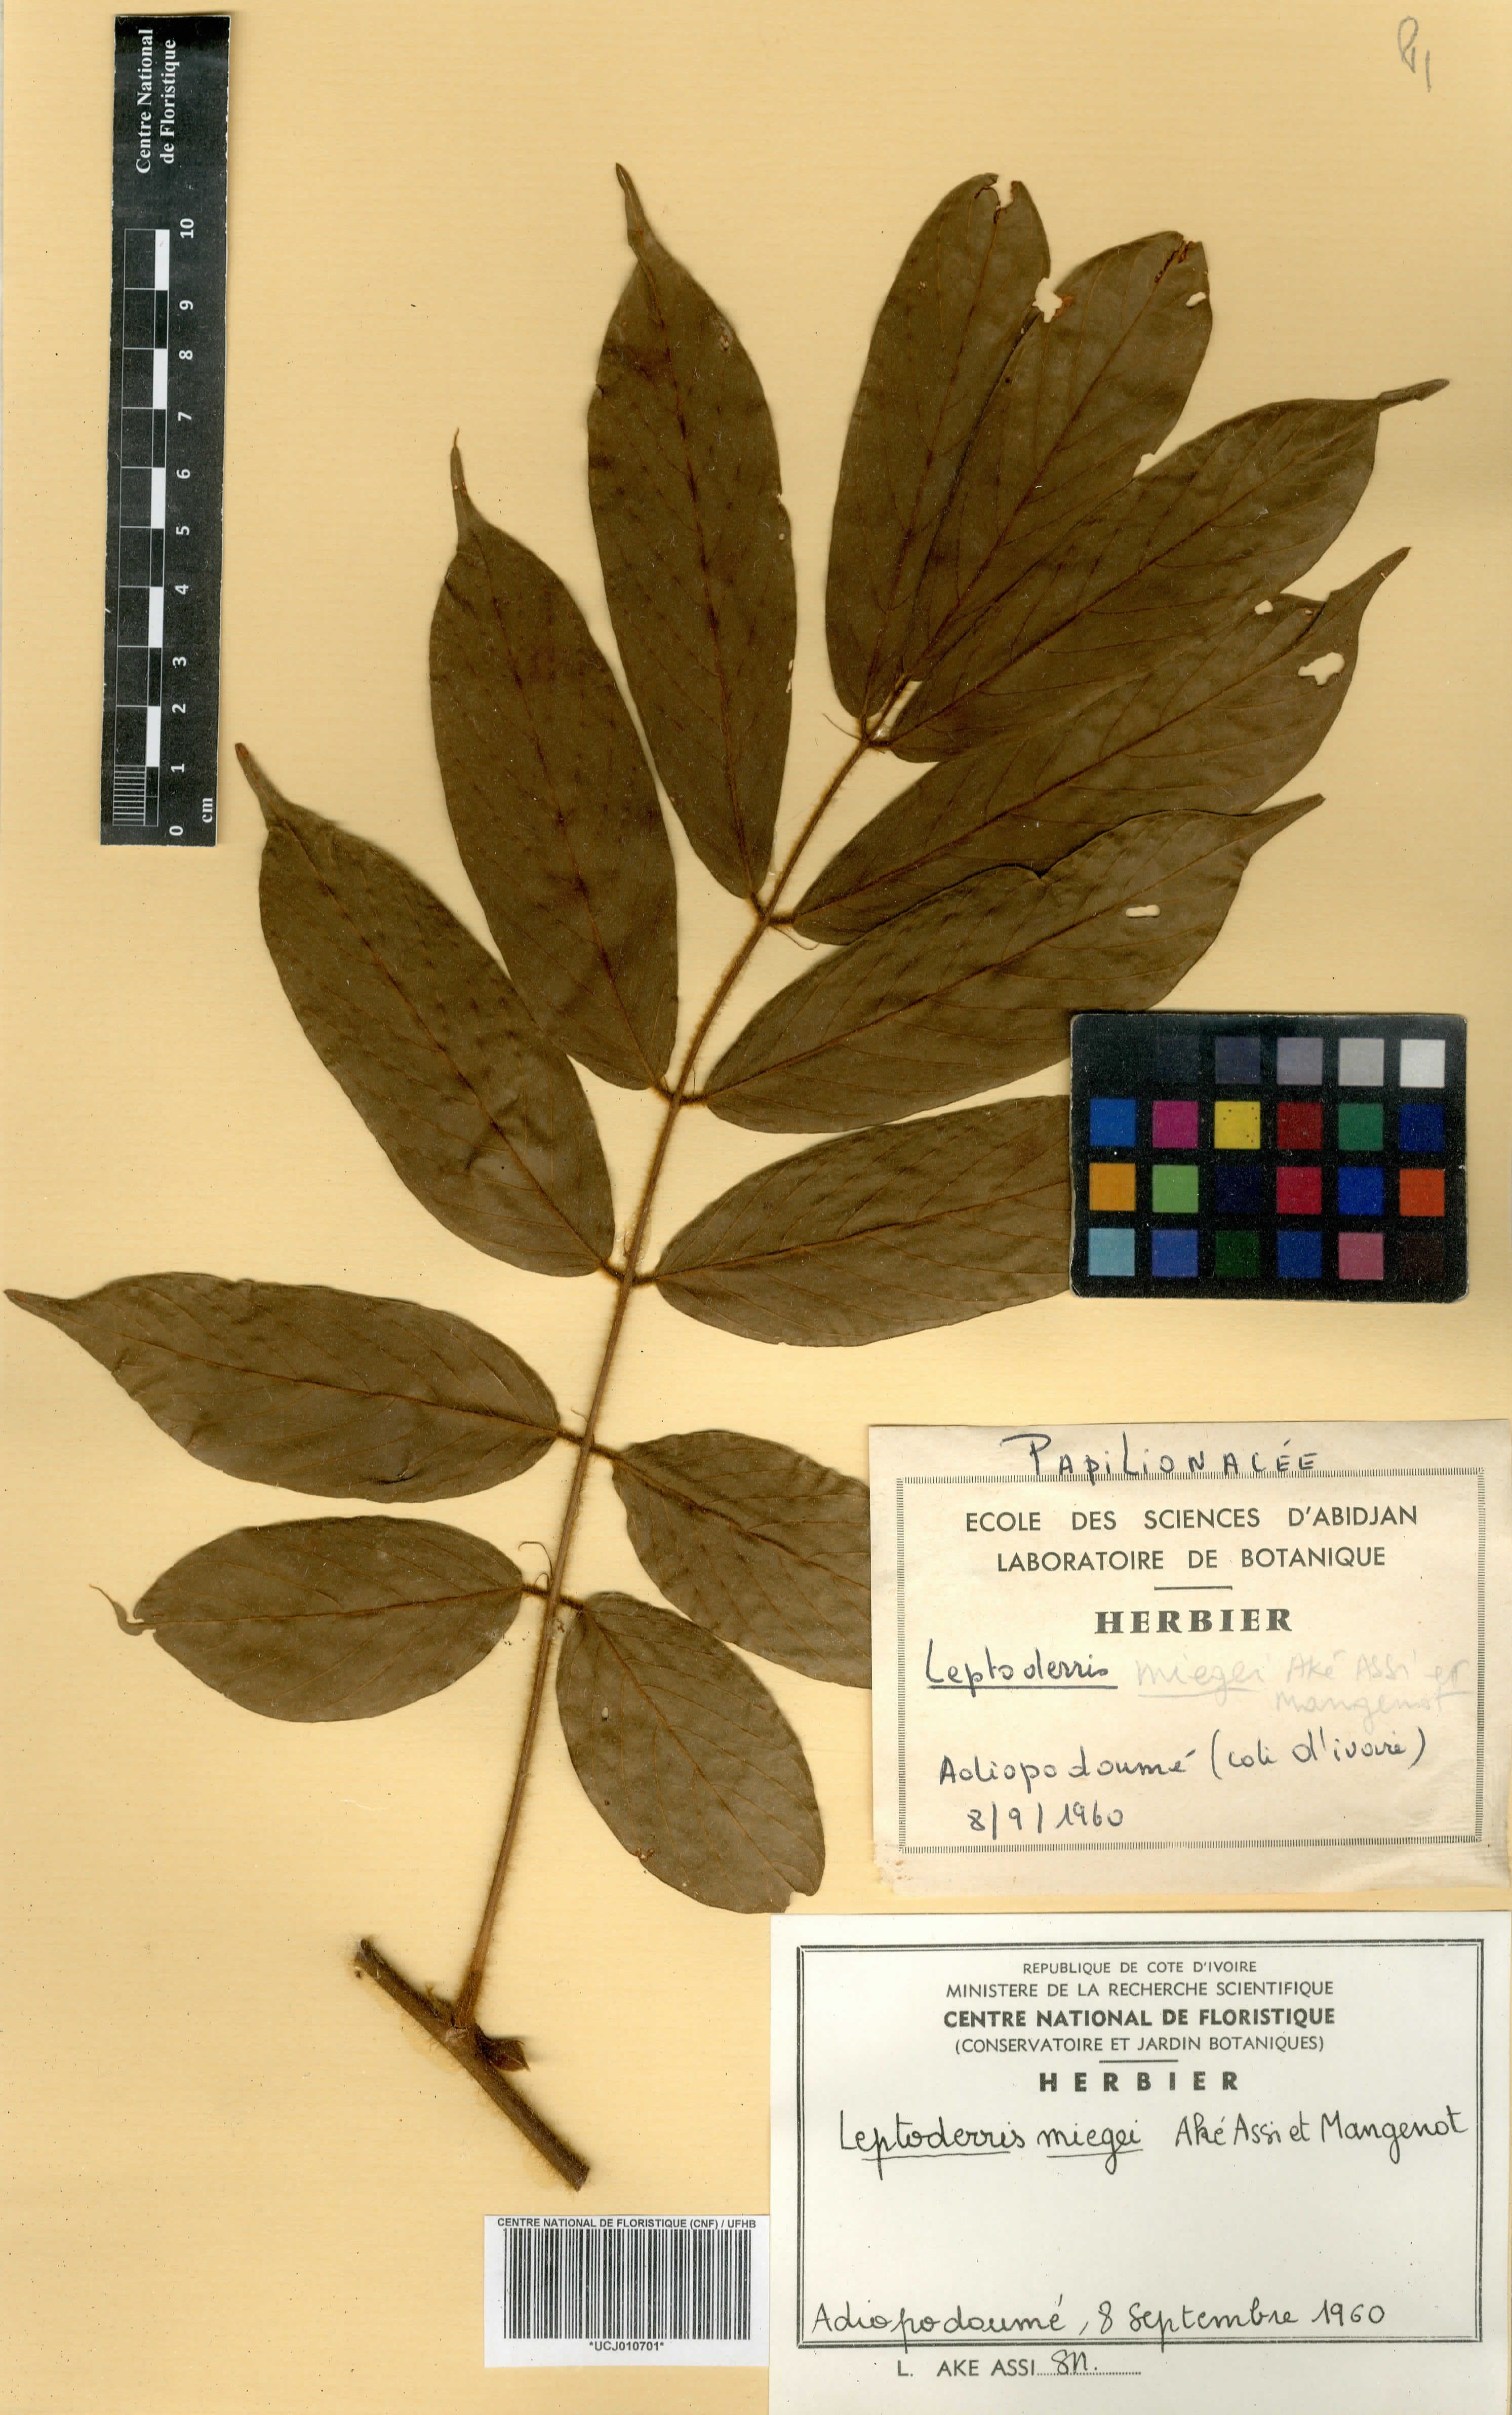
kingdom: Plantae
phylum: Tracheophyta
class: Magnoliopsida
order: Fabales
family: Fabaceae
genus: Leptoderris
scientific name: Leptoderris miegei
